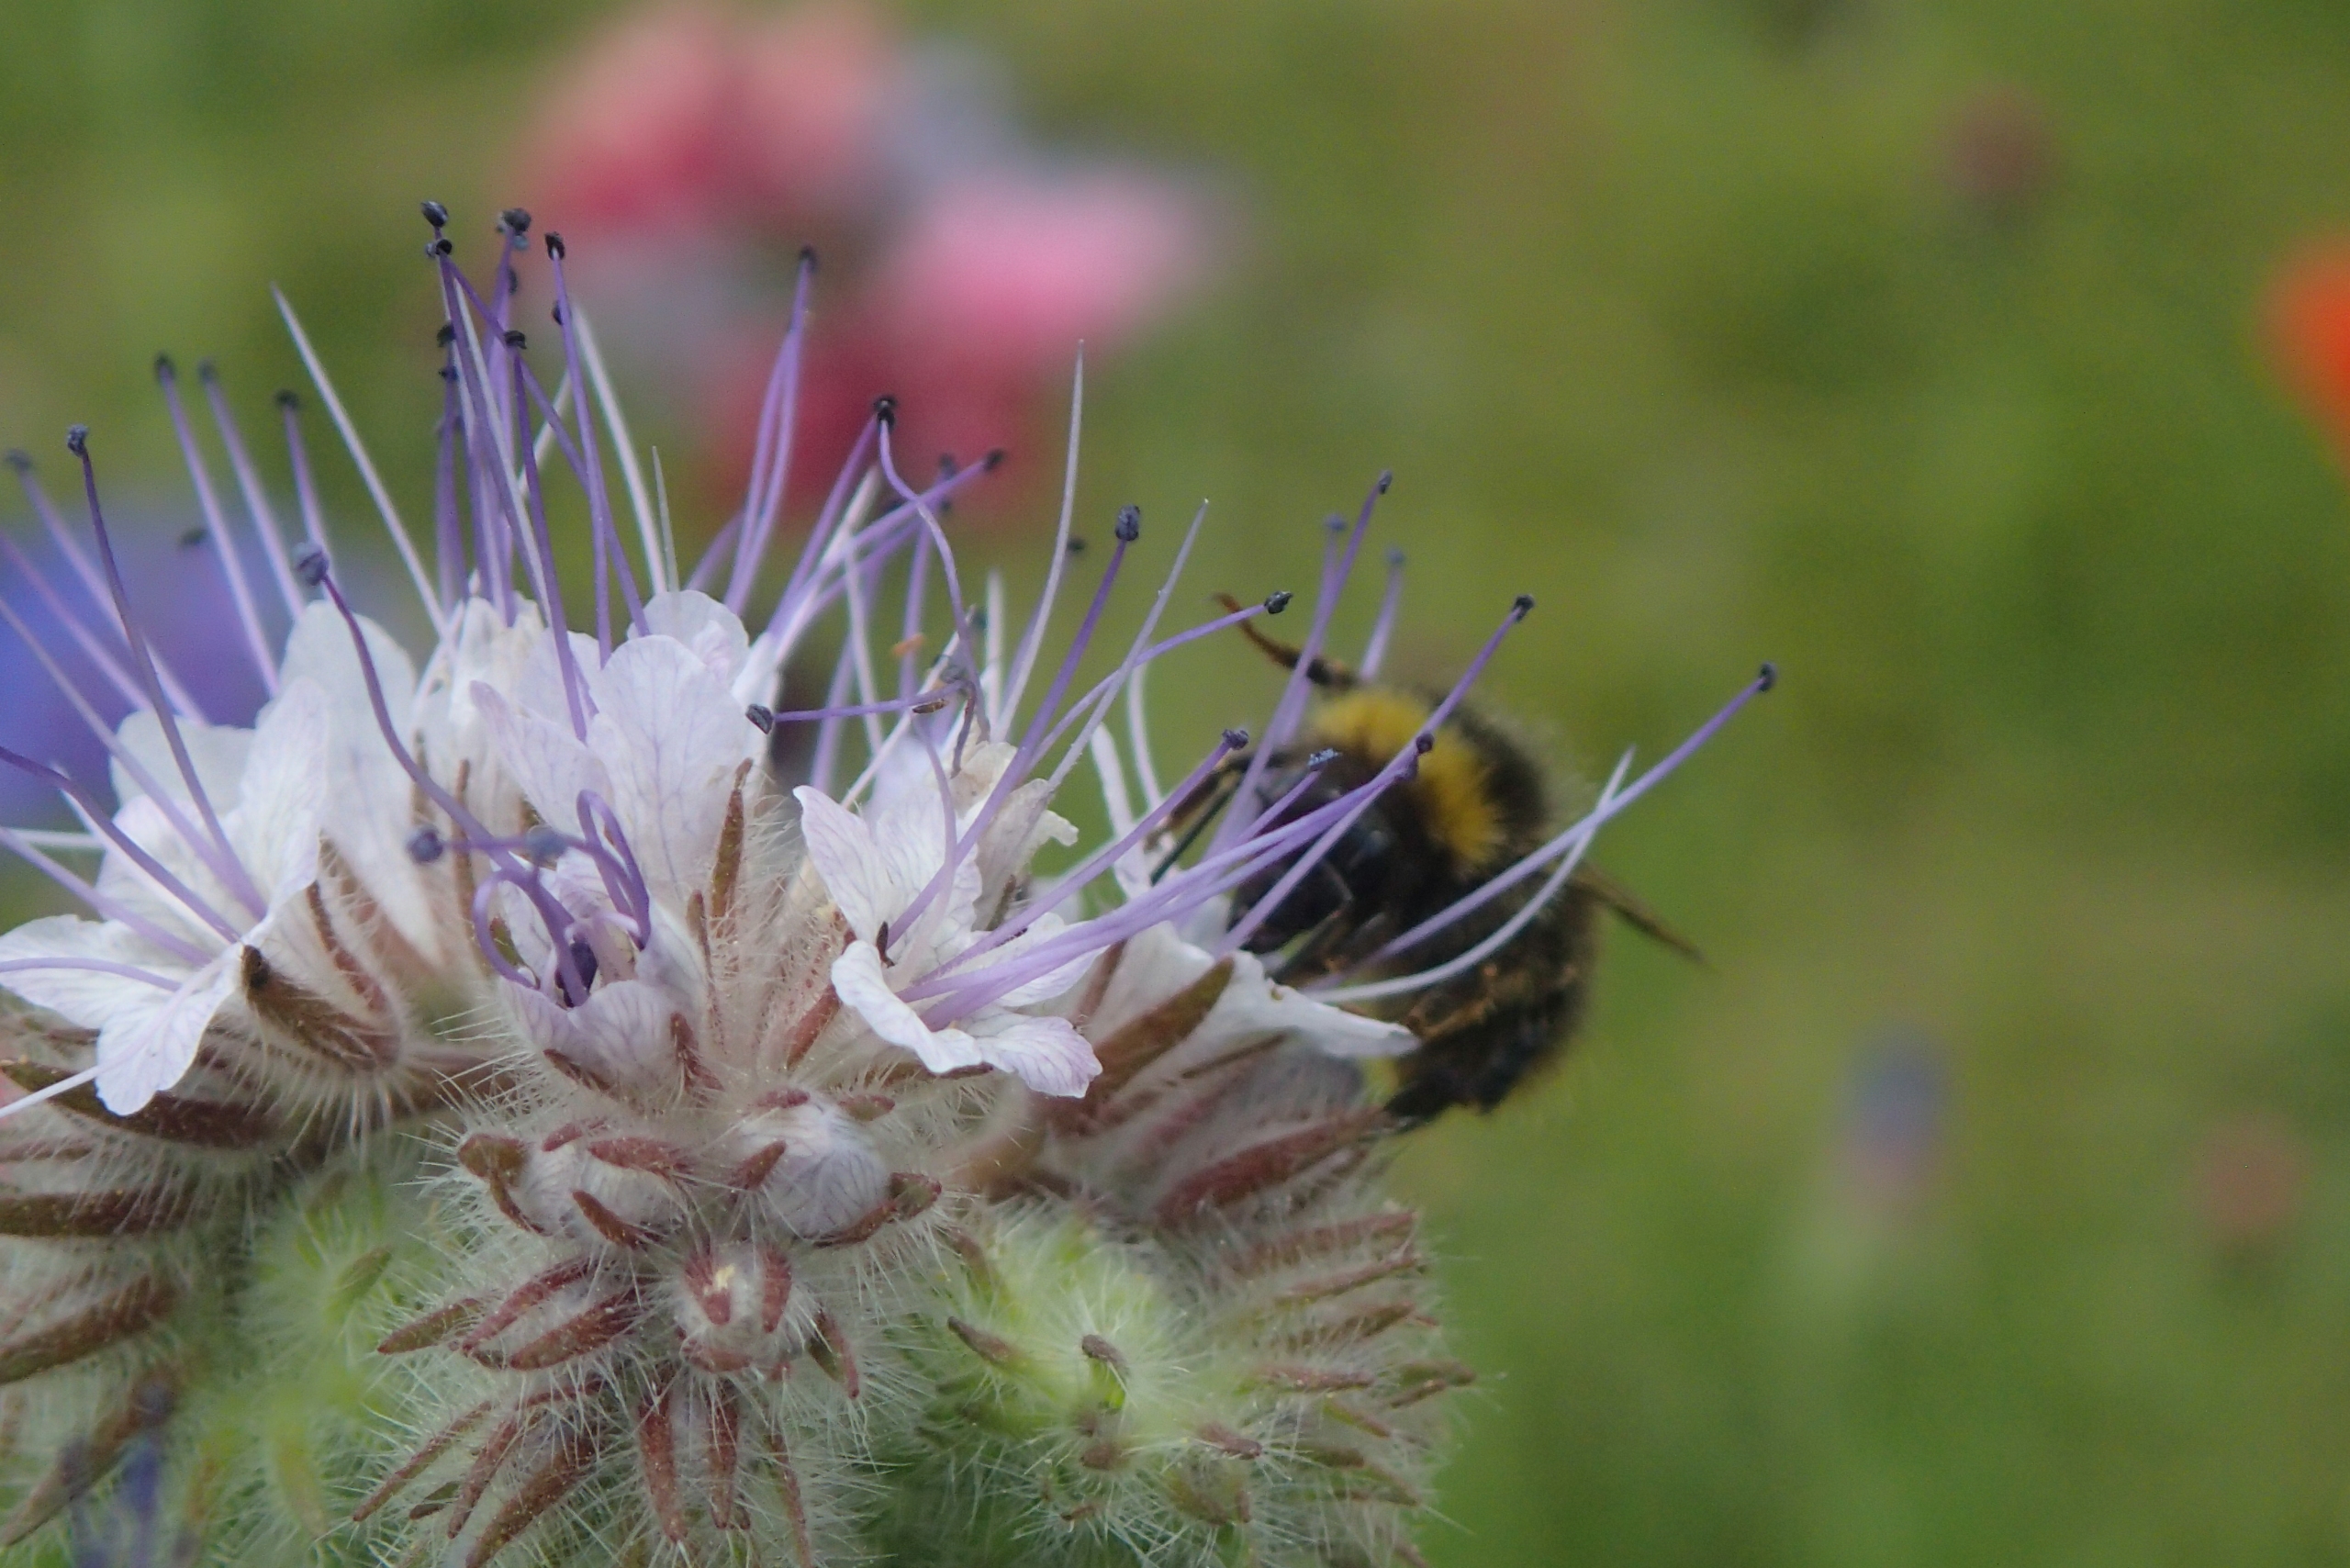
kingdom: Animalia
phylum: Arthropoda
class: Insecta
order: Hymenoptera
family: Apidae
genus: Bombus
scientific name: Bombus pratorum
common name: Lille skovhumle
